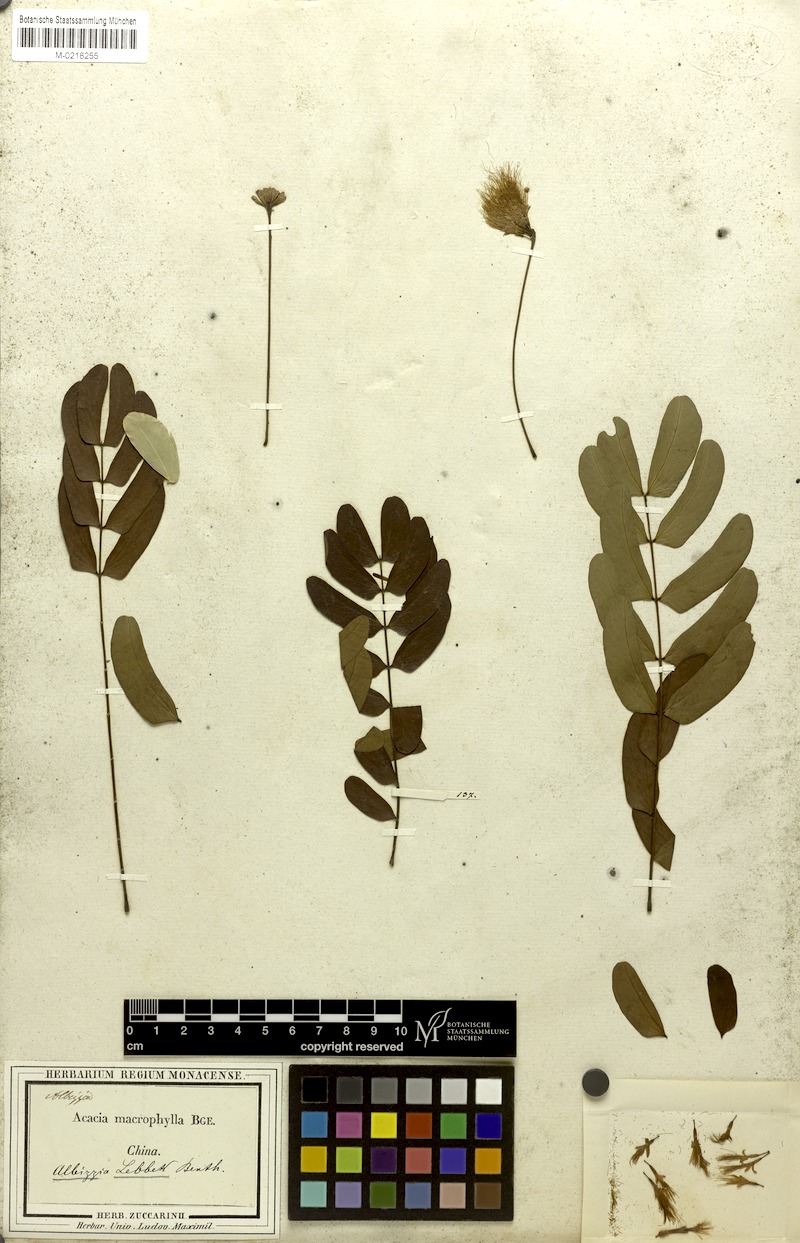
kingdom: Plantae
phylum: Tracheophyta
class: Magnoliopsida
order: Fabales
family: Fabaceae
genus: Albizia
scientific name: Albizia lebbeck
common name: Woman's tongue
